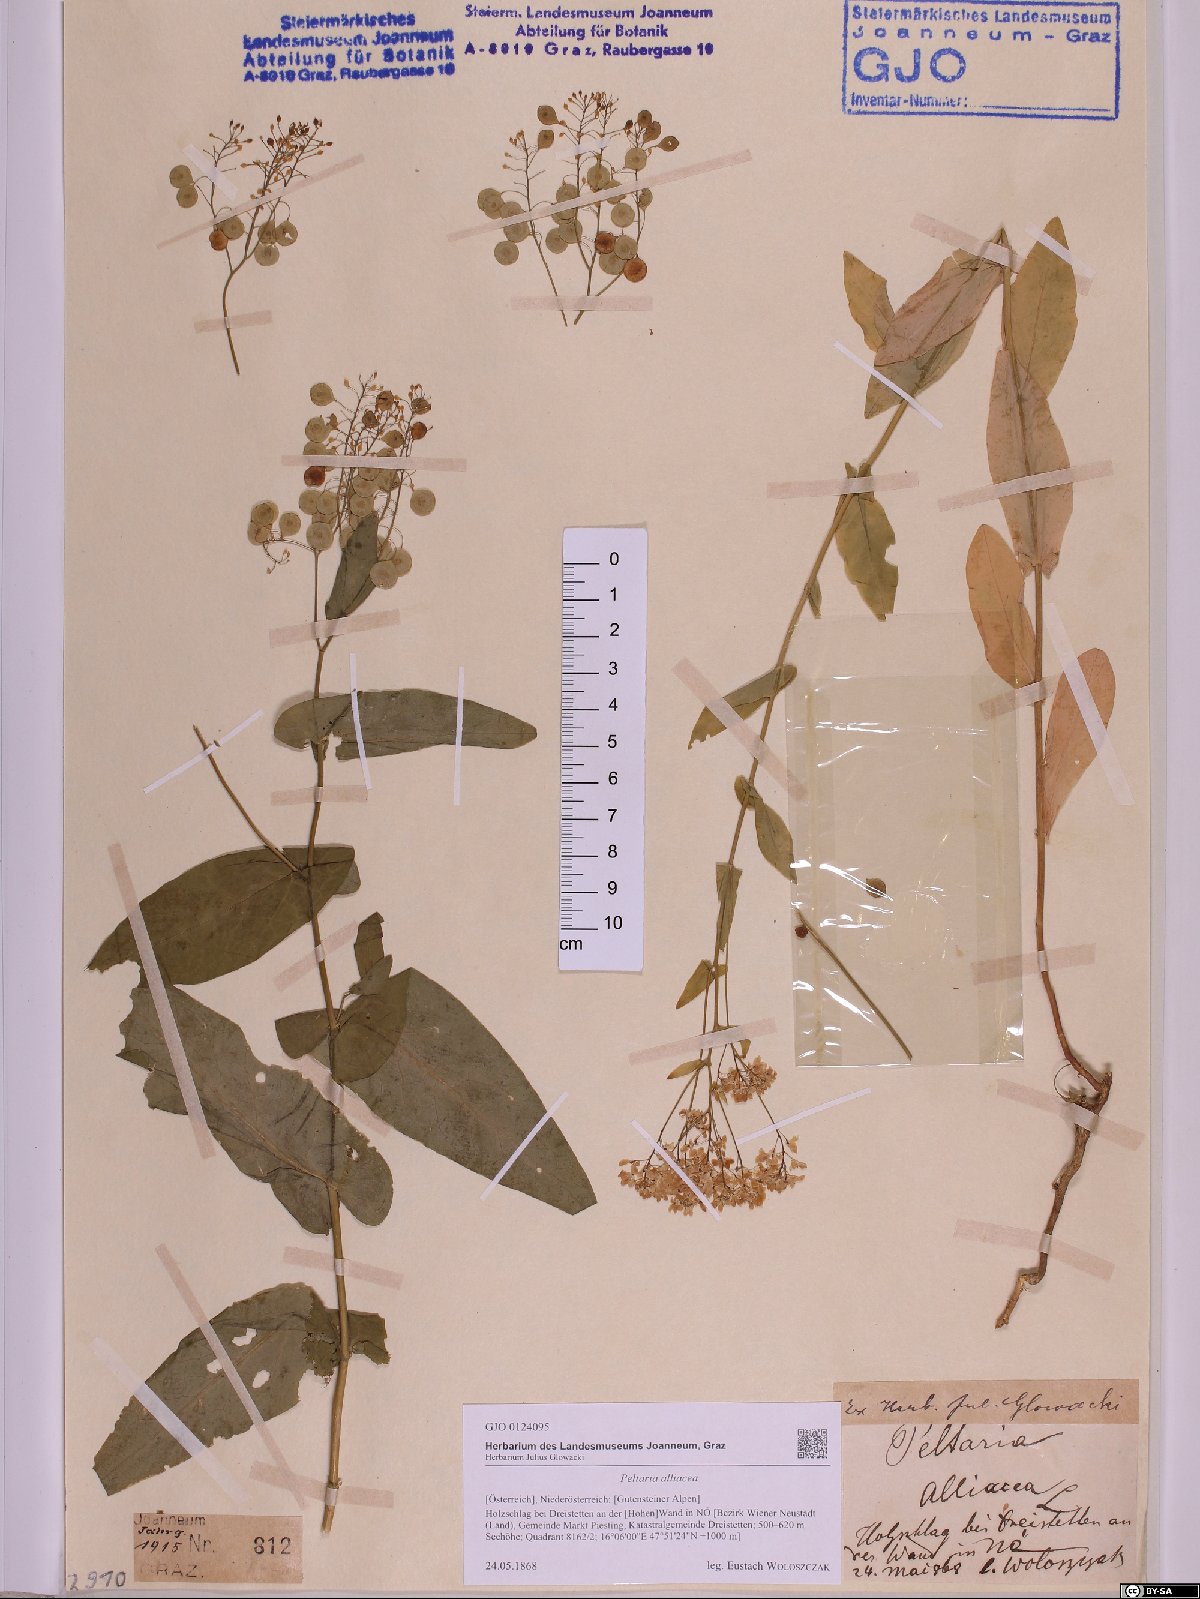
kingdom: Plantae
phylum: Tracheophyta
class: Magnoliopsida
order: Brassicales
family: Brassicaceae
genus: Peltaria
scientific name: Peltaria alliacea
